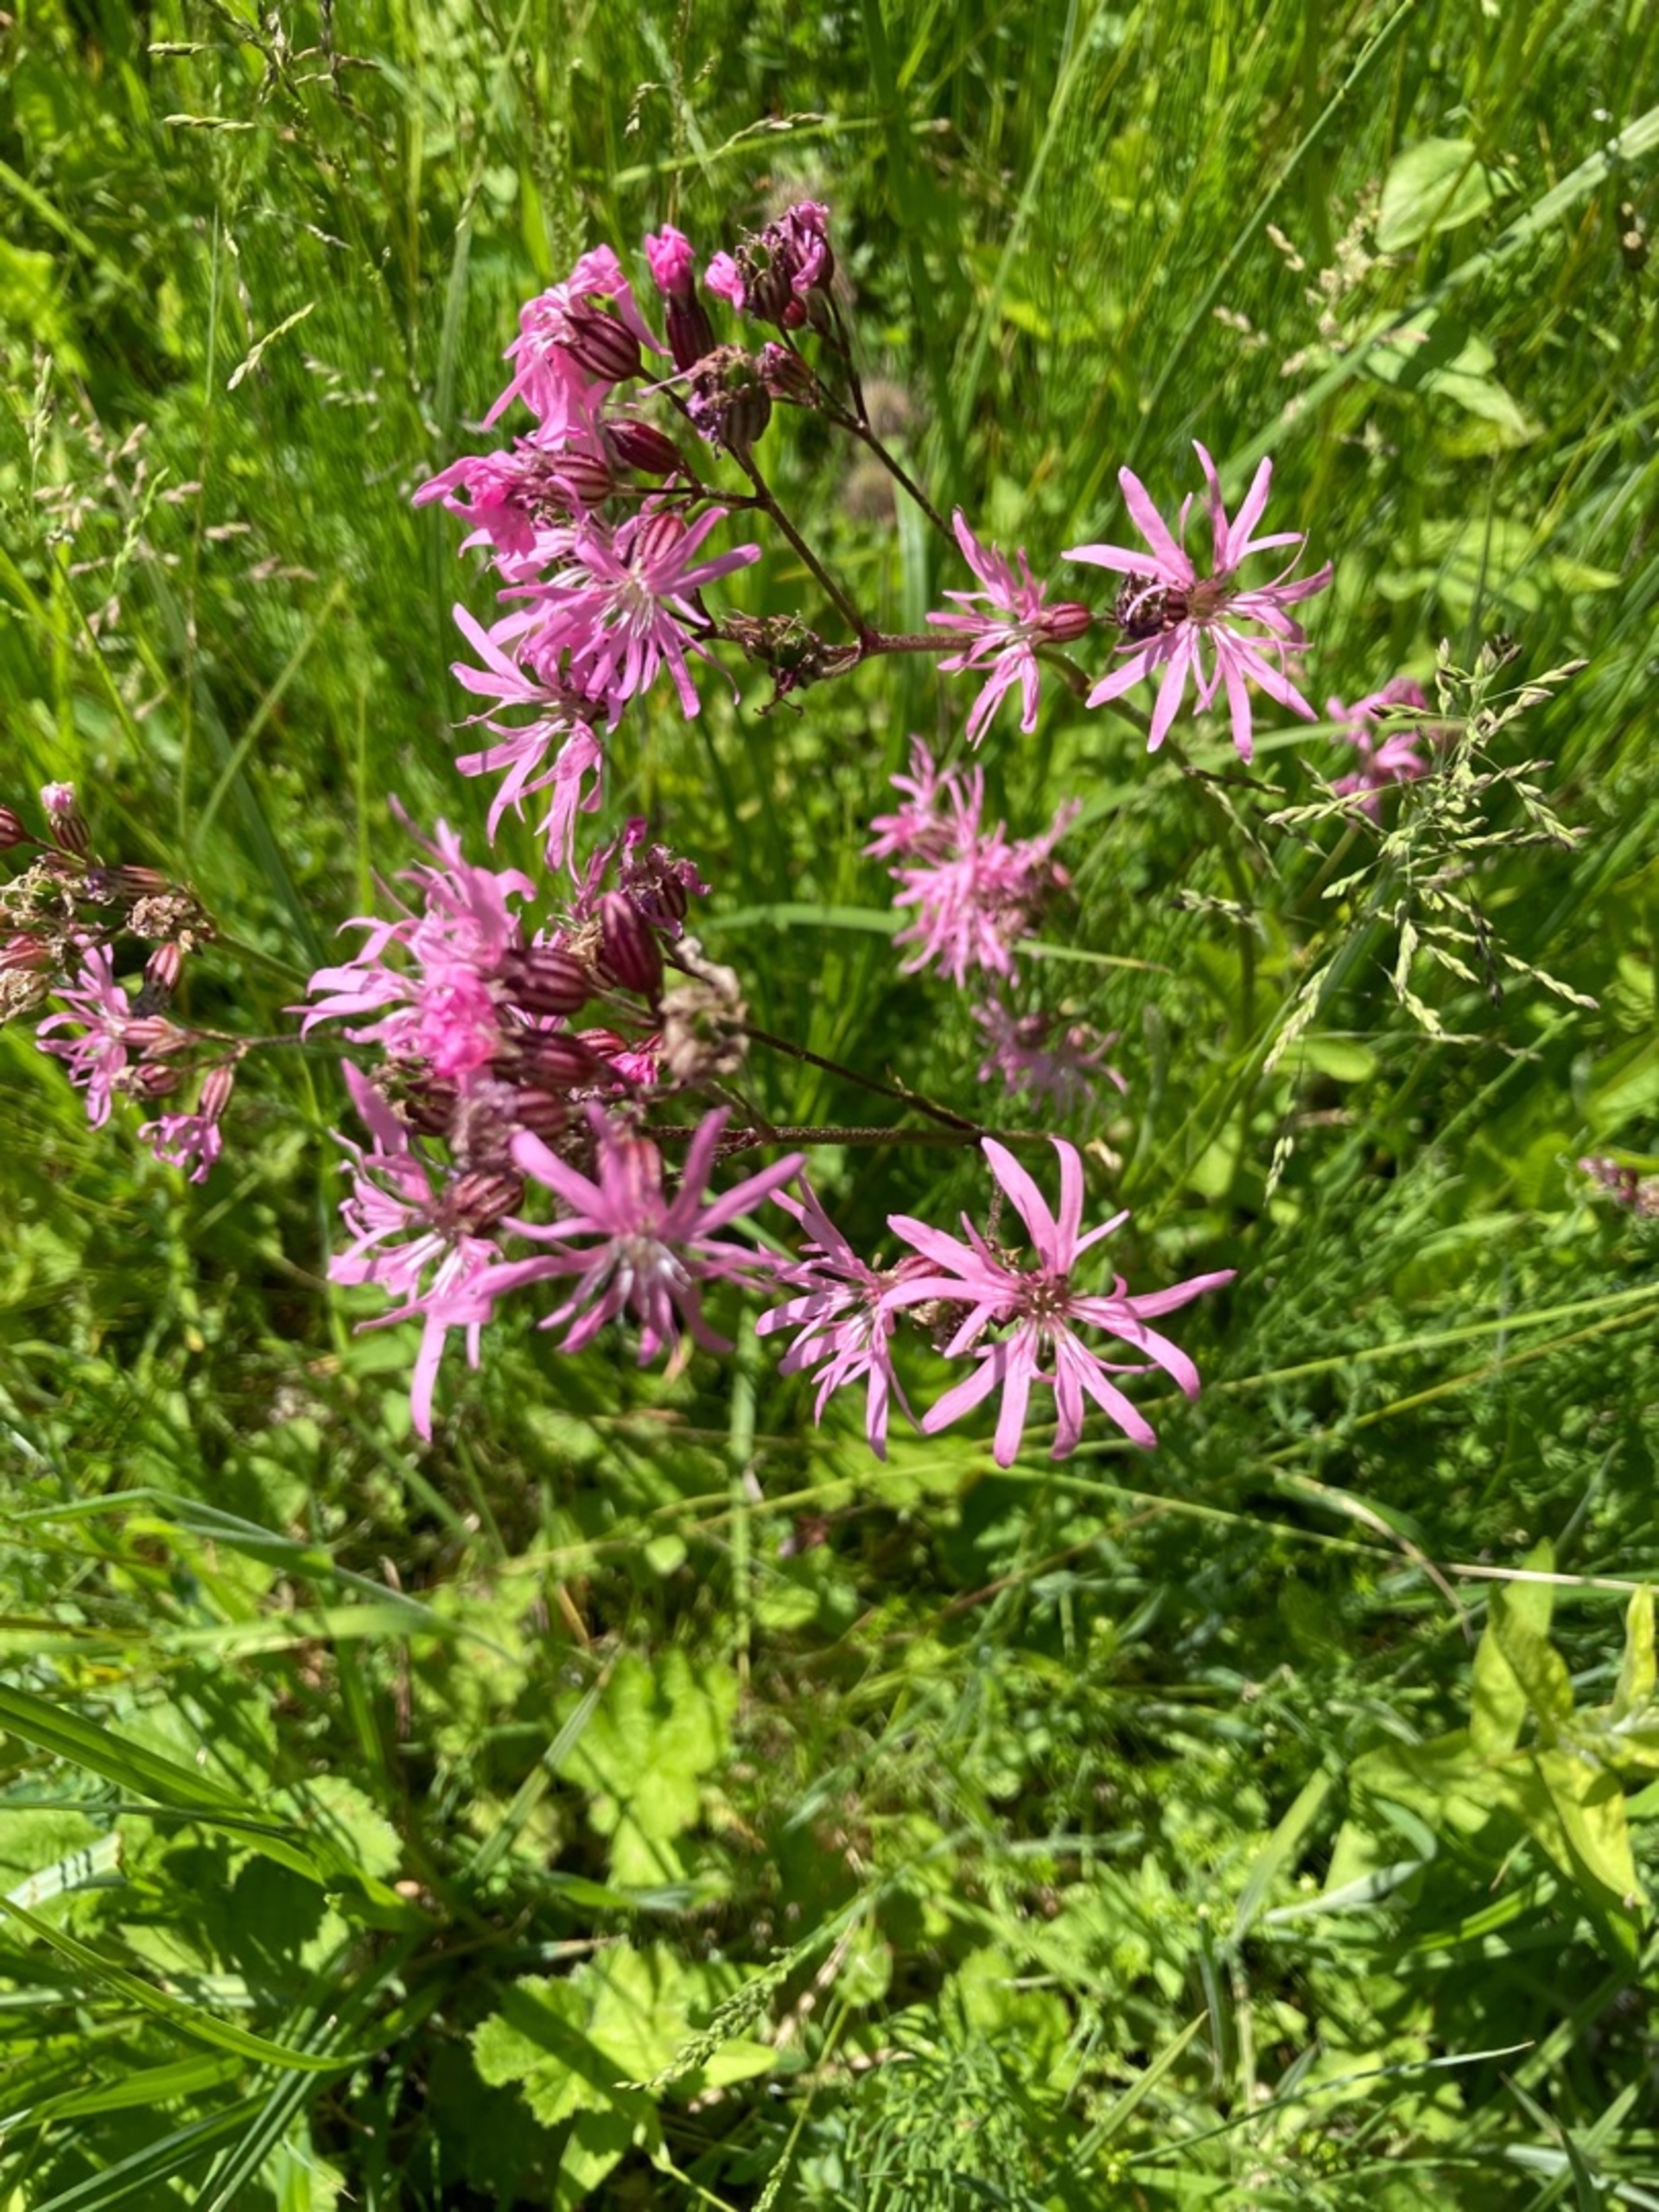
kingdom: Plantae
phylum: Tracheophyta
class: Magnoliopsida
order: Caryophyllales
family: Caryophyllaceae
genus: Silene
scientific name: Silene flos-cuculi
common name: Trævlekrone
